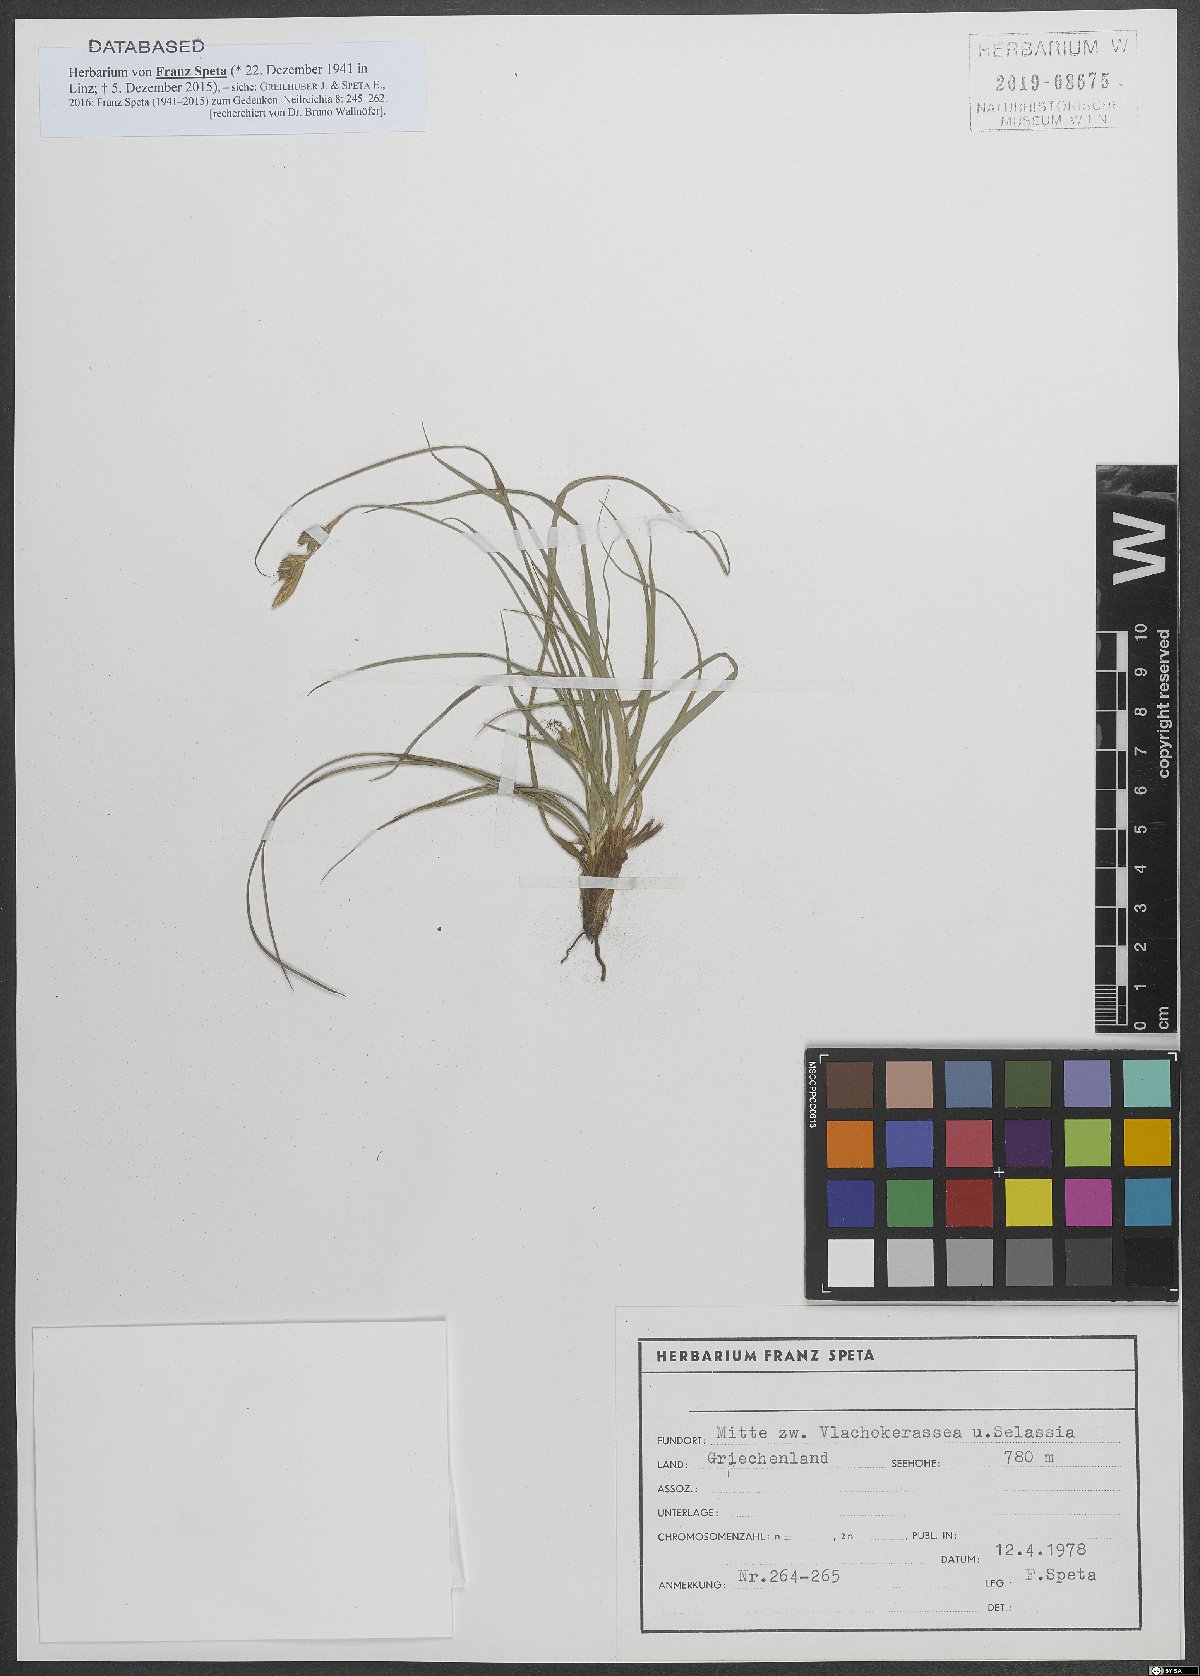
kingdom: Plantae
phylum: Tracheophyta
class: Liliopsida
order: Poales
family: Cyperaceae
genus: Carex
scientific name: Carex halleriana
